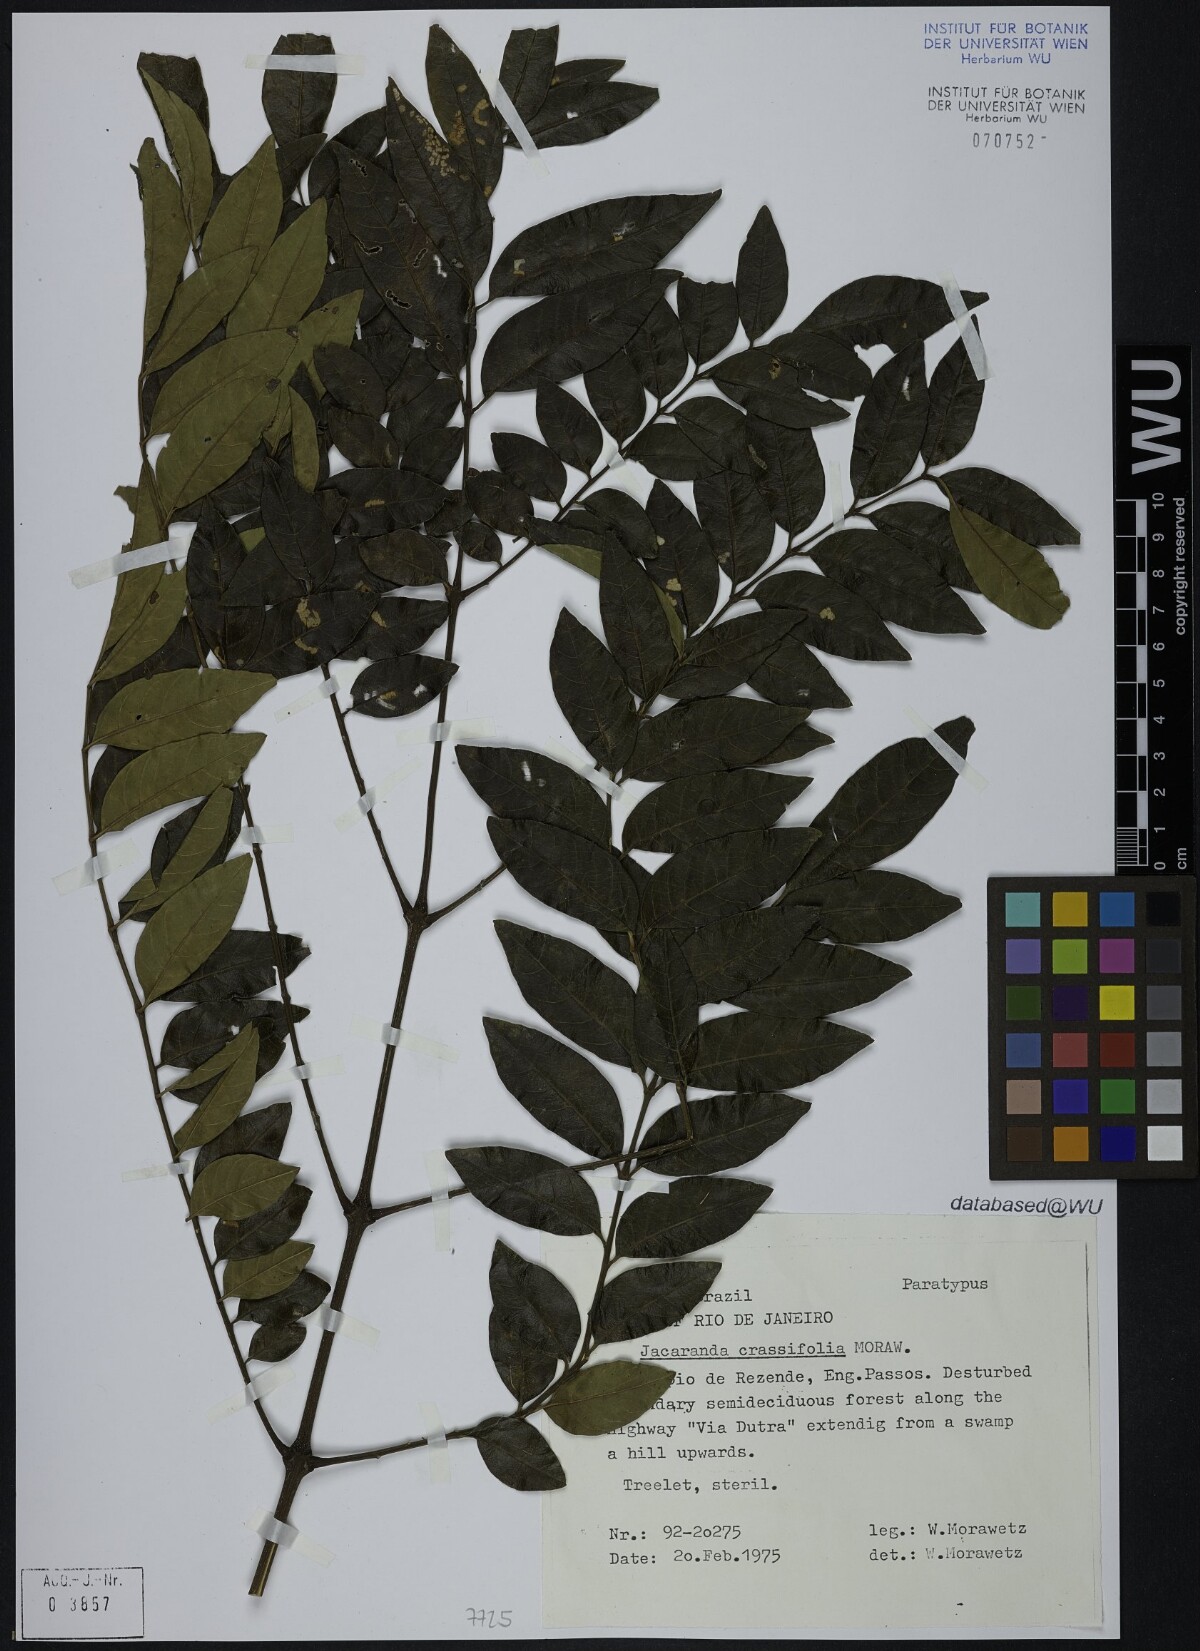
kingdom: Plantae
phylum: Tracheophyta
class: Magnoliopsida
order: Lamiales
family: Bignoniaceae
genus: Jacaranda
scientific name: Jacaranda crassifolia
